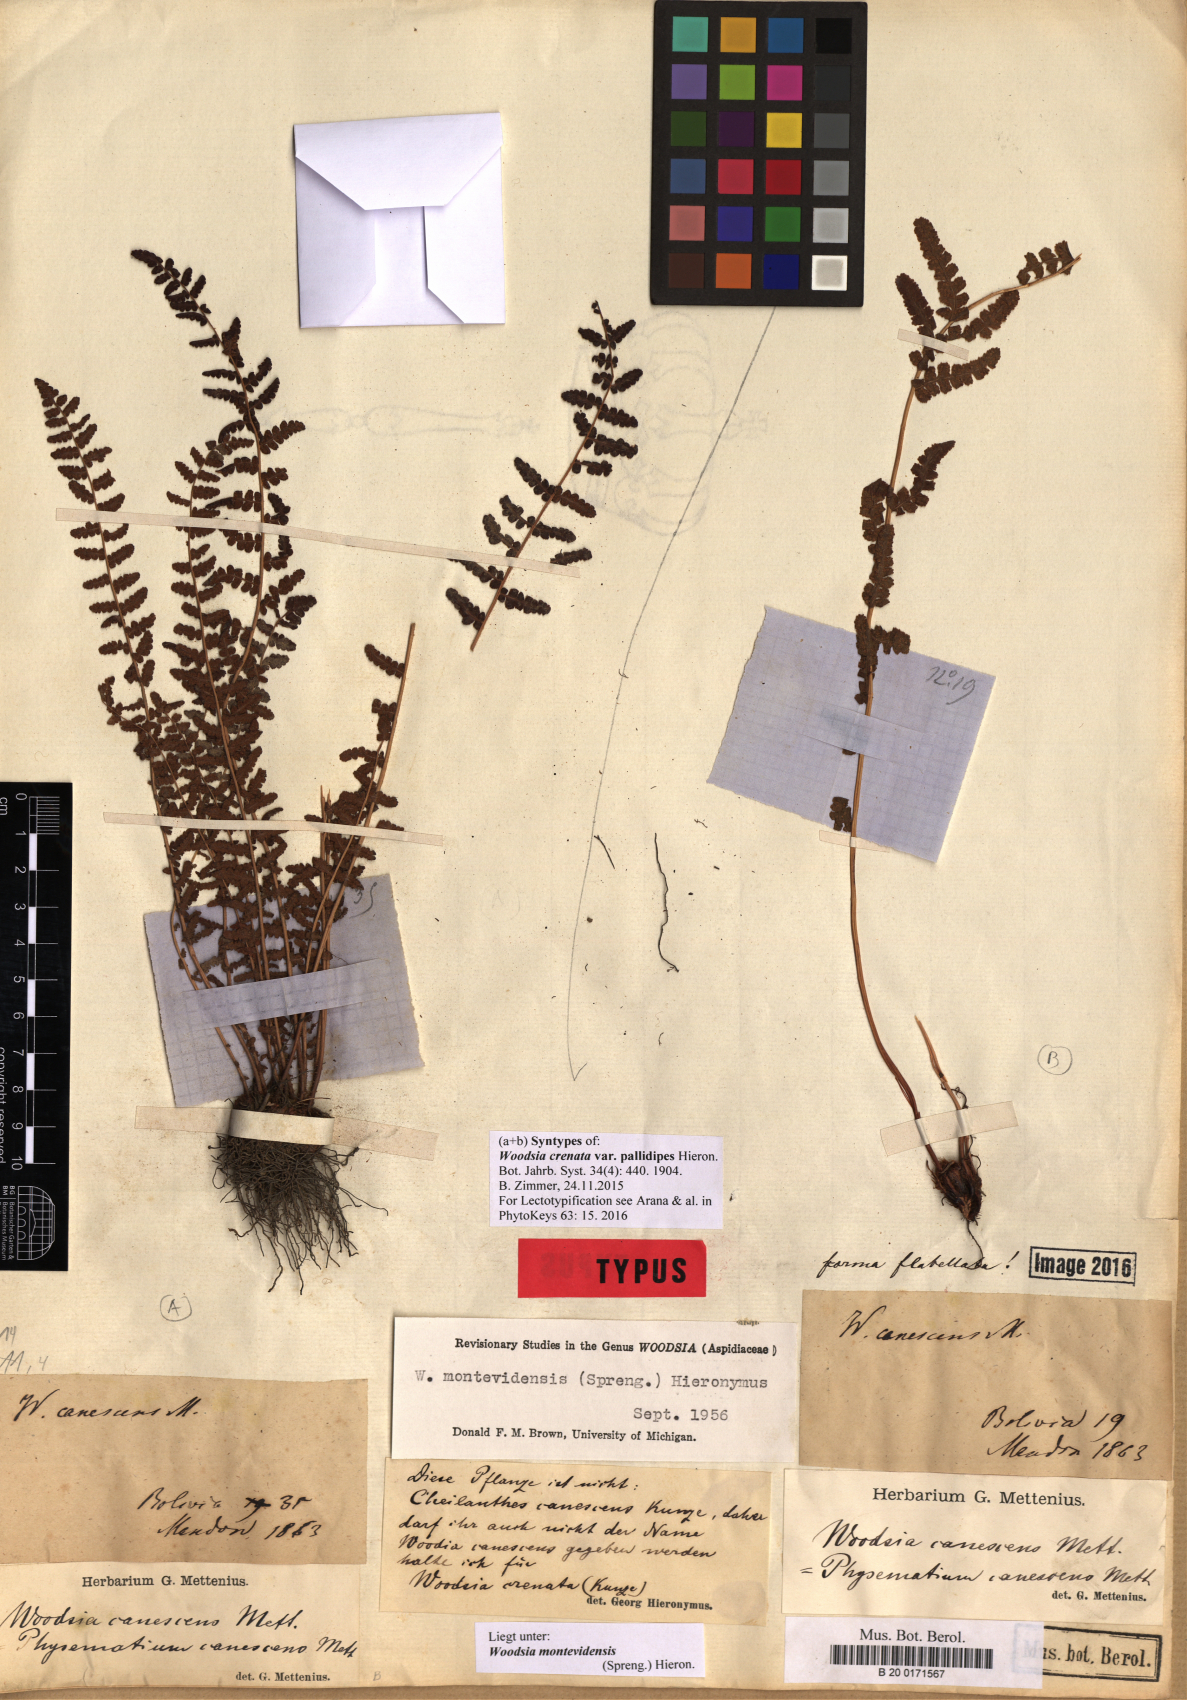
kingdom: Plantae
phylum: Tracheophyta
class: Polypodiopsida
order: Polypodiales
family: Woodsiaceae
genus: Physematium
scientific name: Physematium montevidense
